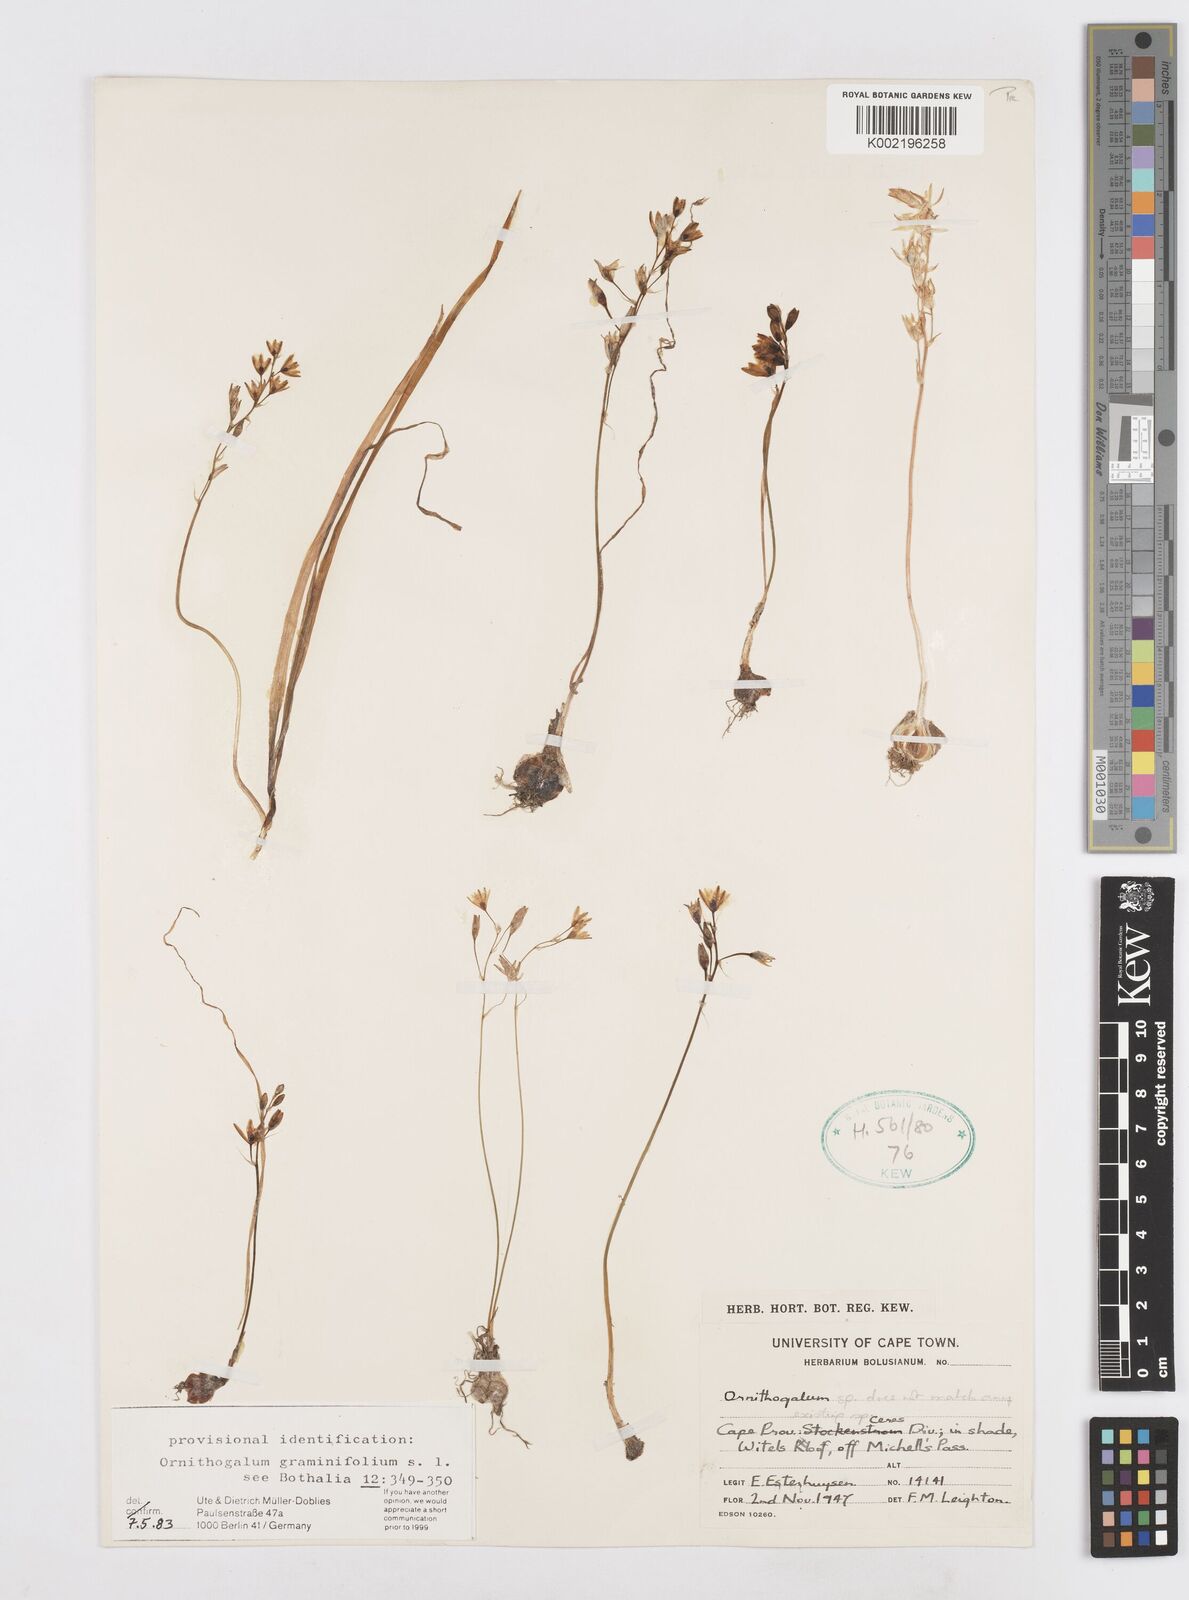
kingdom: Plantae
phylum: Tracheophyta
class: Liliopsida
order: Asparagales
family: Asparagaceae
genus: Ornithogalum
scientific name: Ornithogalum graminifolium
